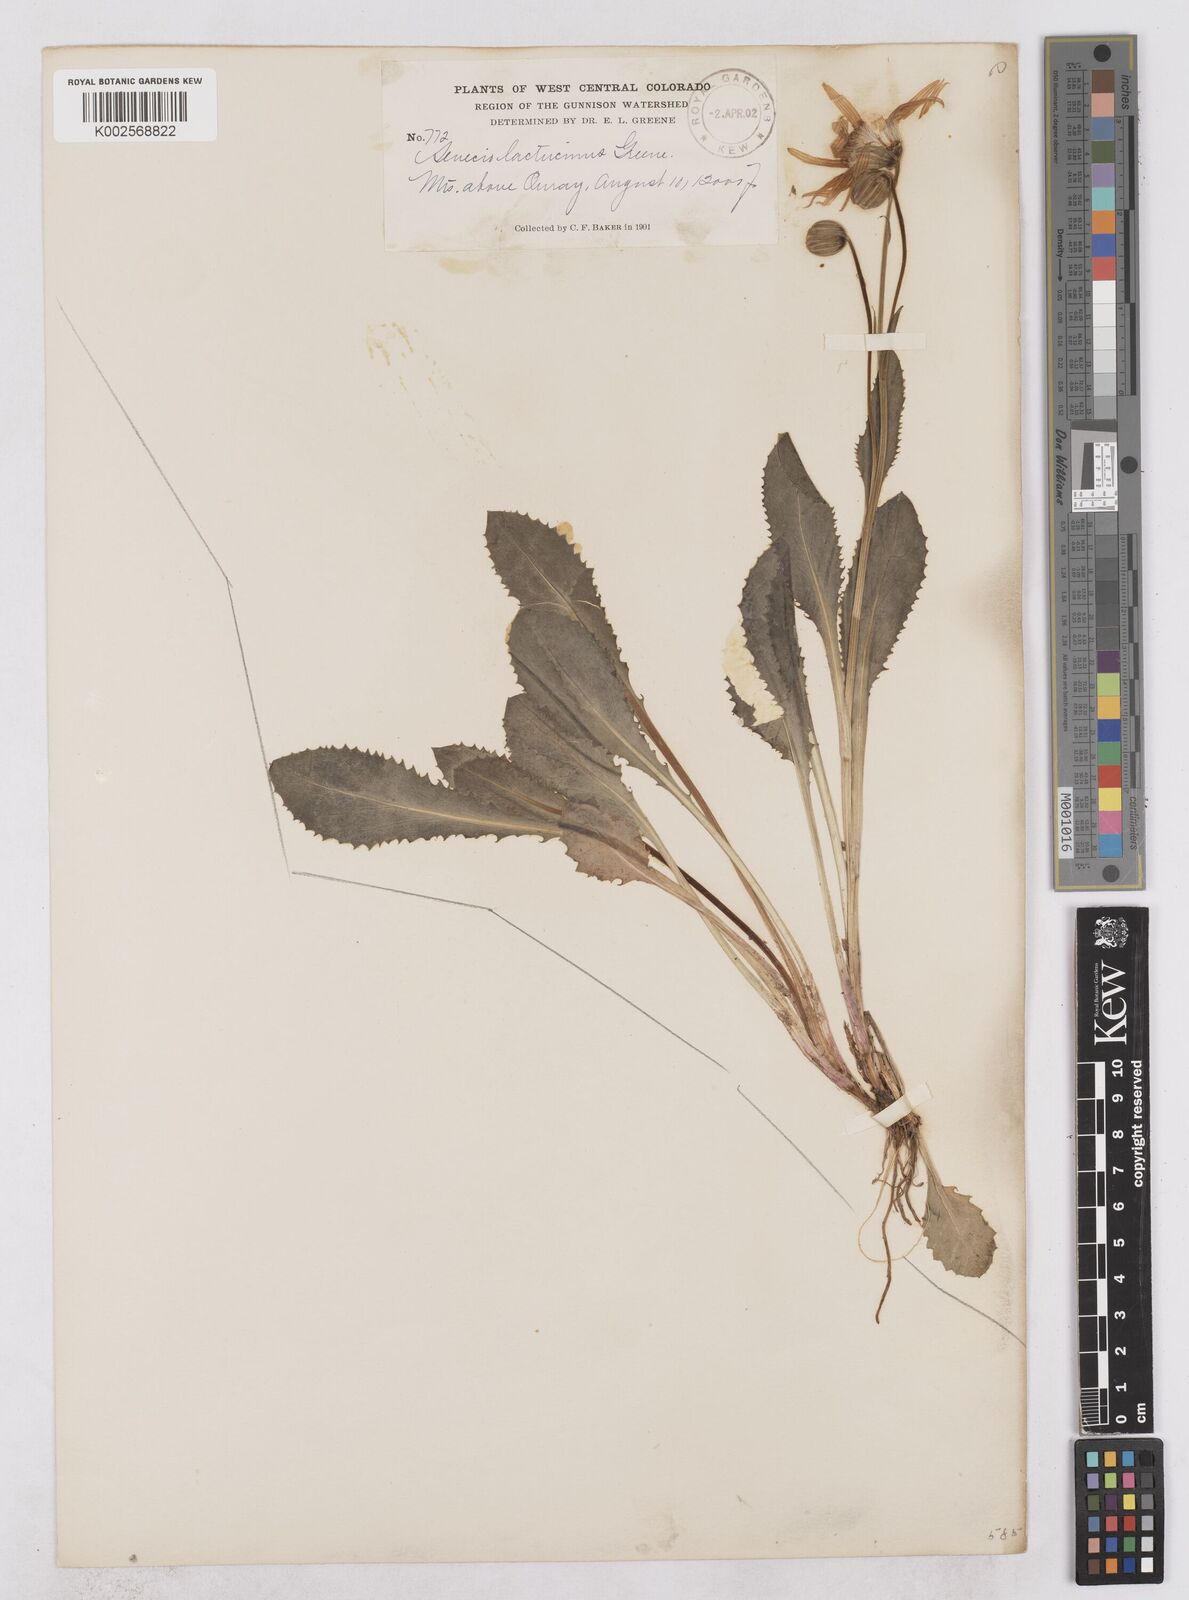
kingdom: Plantae
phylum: Tracheophyta
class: Magnoliopsida
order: Asterales
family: Asteraceae
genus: Senecio
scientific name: Senecio amplectens
